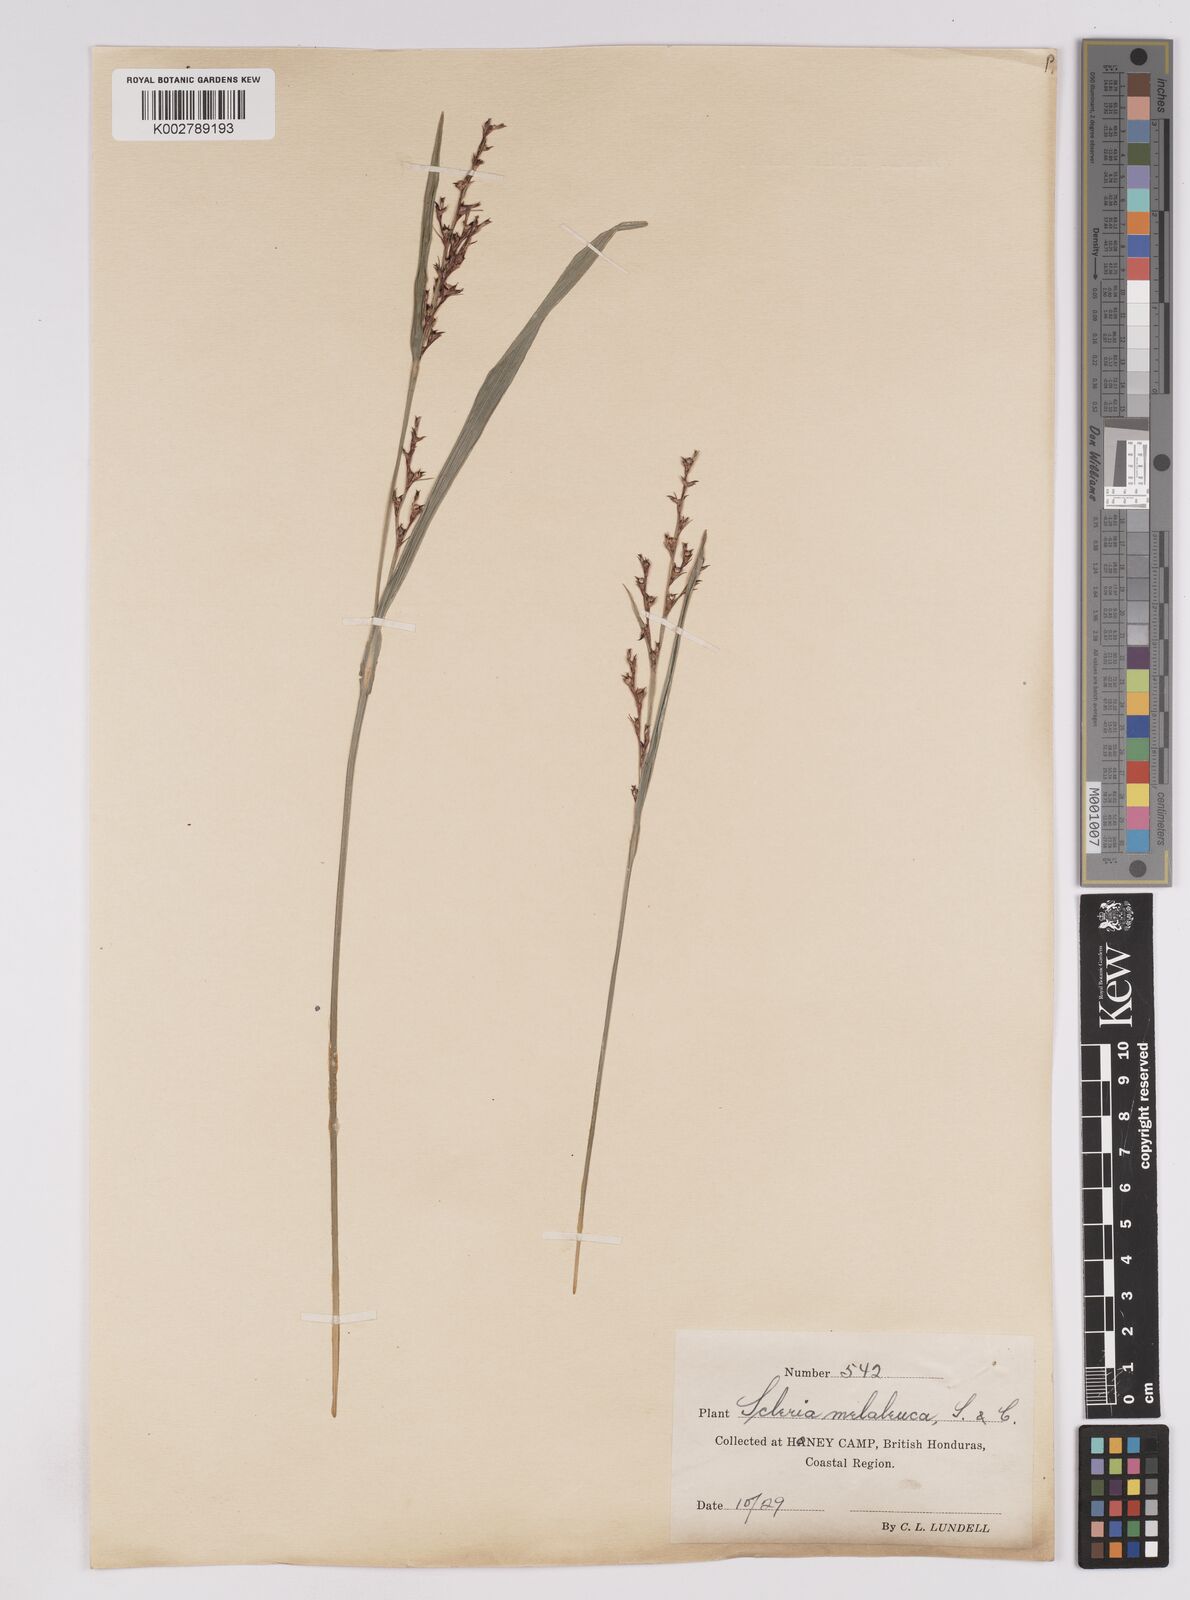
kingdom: Plantae
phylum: Tracheophyta
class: Liliopsida
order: Poales
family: Cyperaceae
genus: Scleria
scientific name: Scleria gaertneri
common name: Cortadera blanca
